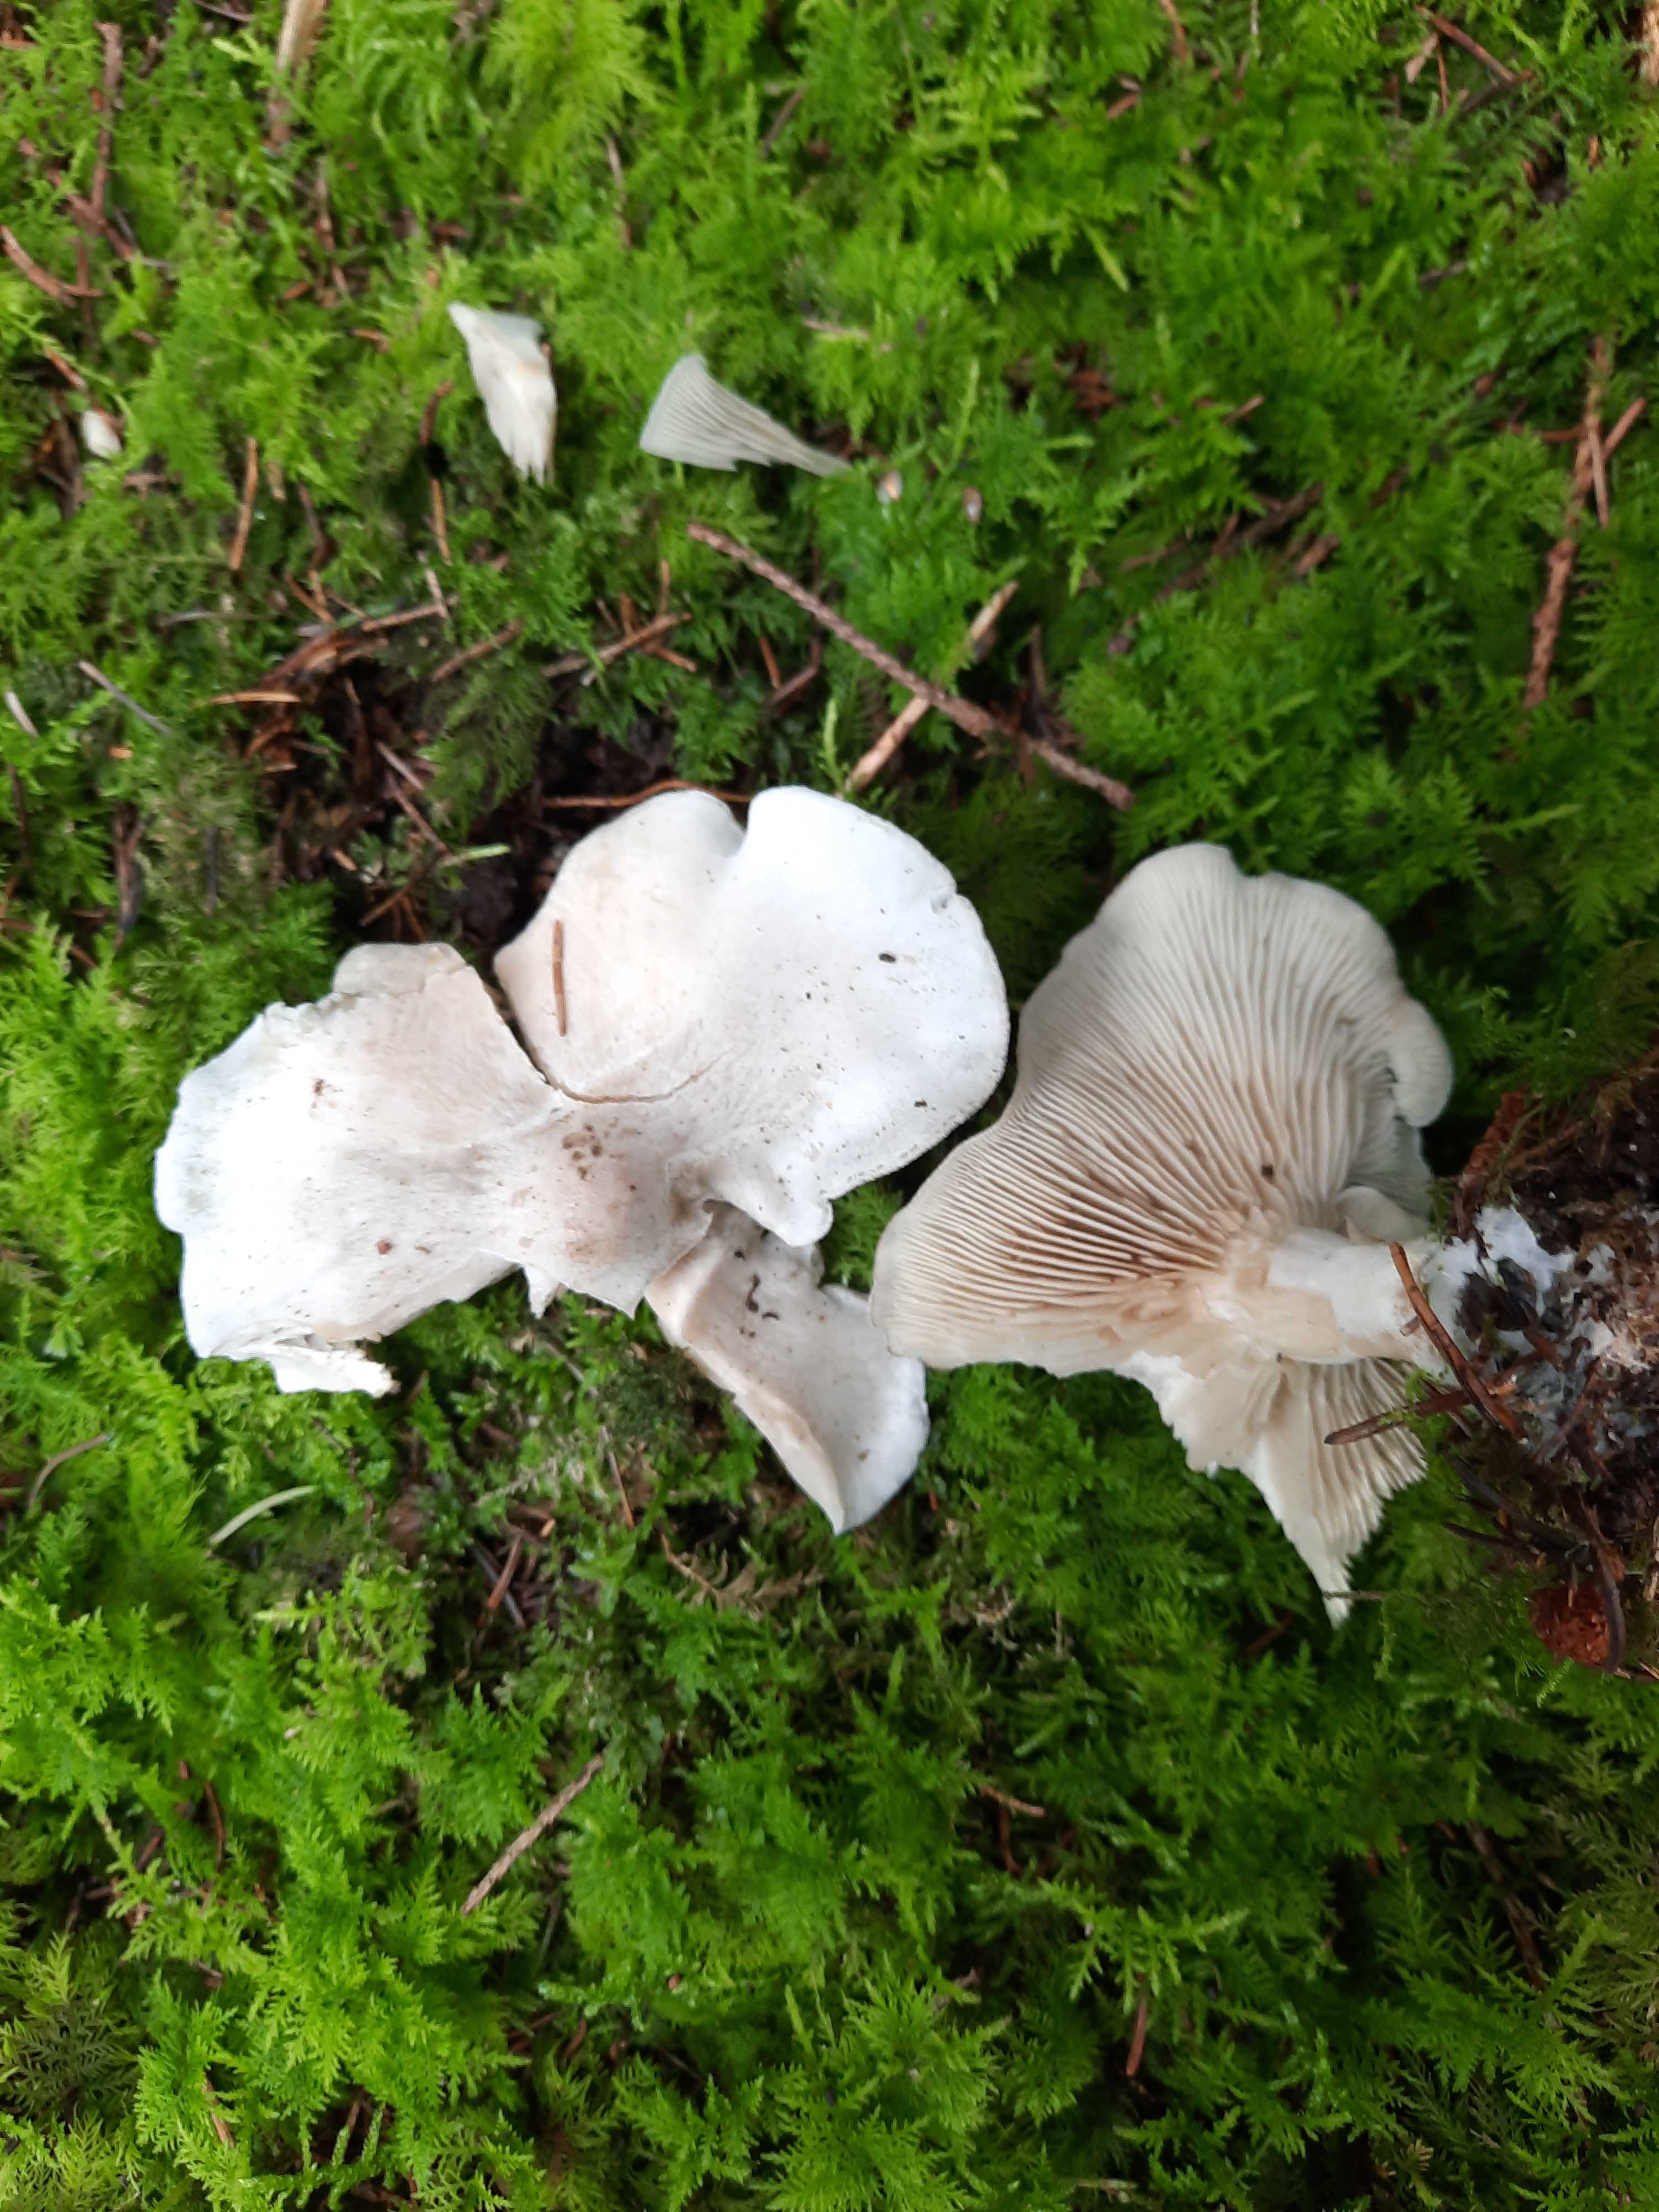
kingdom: Fungi
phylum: Basidiomycota
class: Agaricomycetes
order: Agaricales
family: Tricholomataceae
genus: Clitocybe
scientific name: Clitocybe odora
